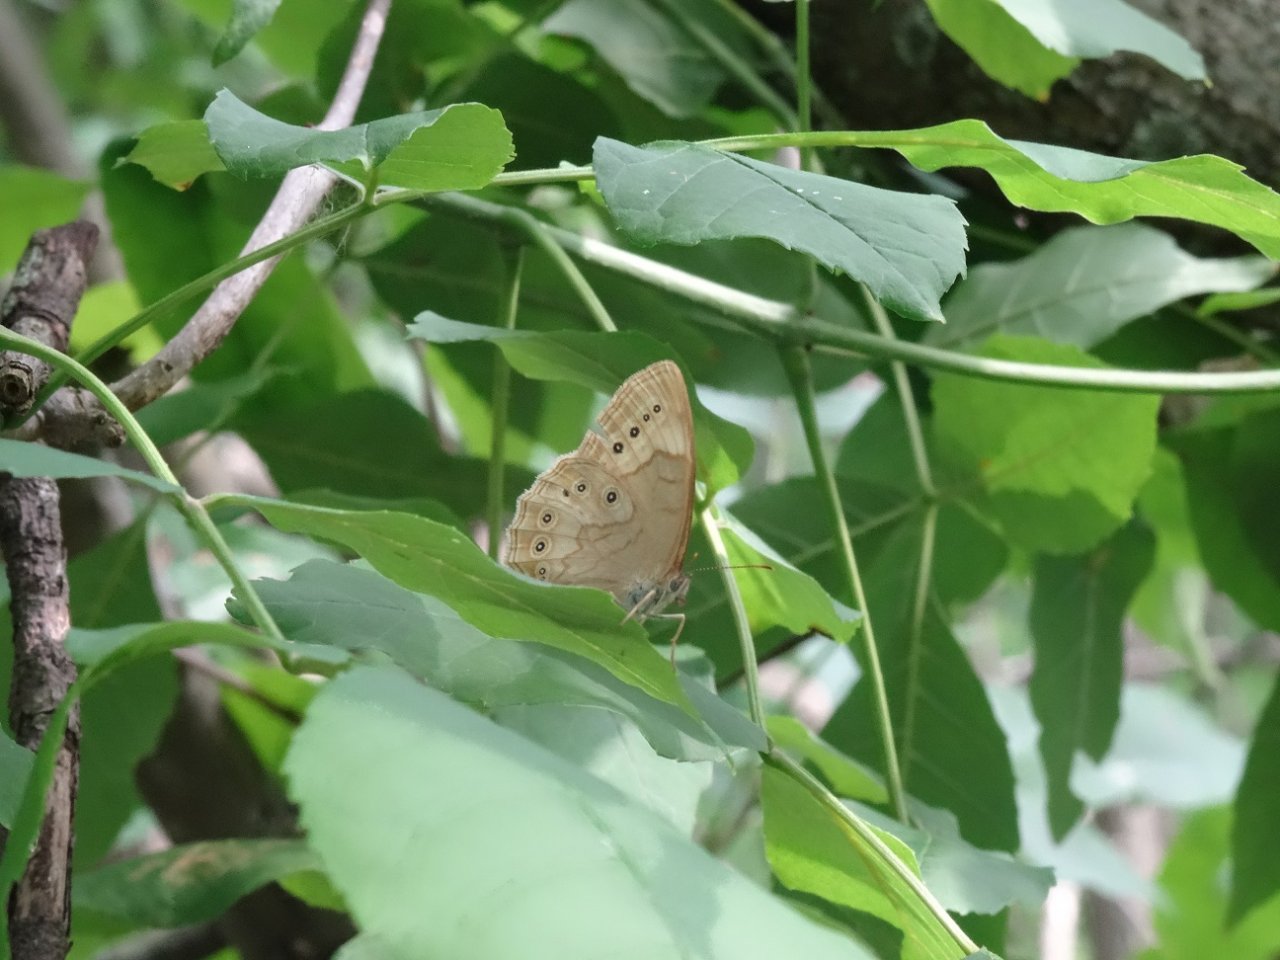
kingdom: Animalia
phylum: Arthropoda
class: Insecta
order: Lepidoptera
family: Nymphalidae
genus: Lethe
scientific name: Lethe eurydice
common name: Eyed Brown
